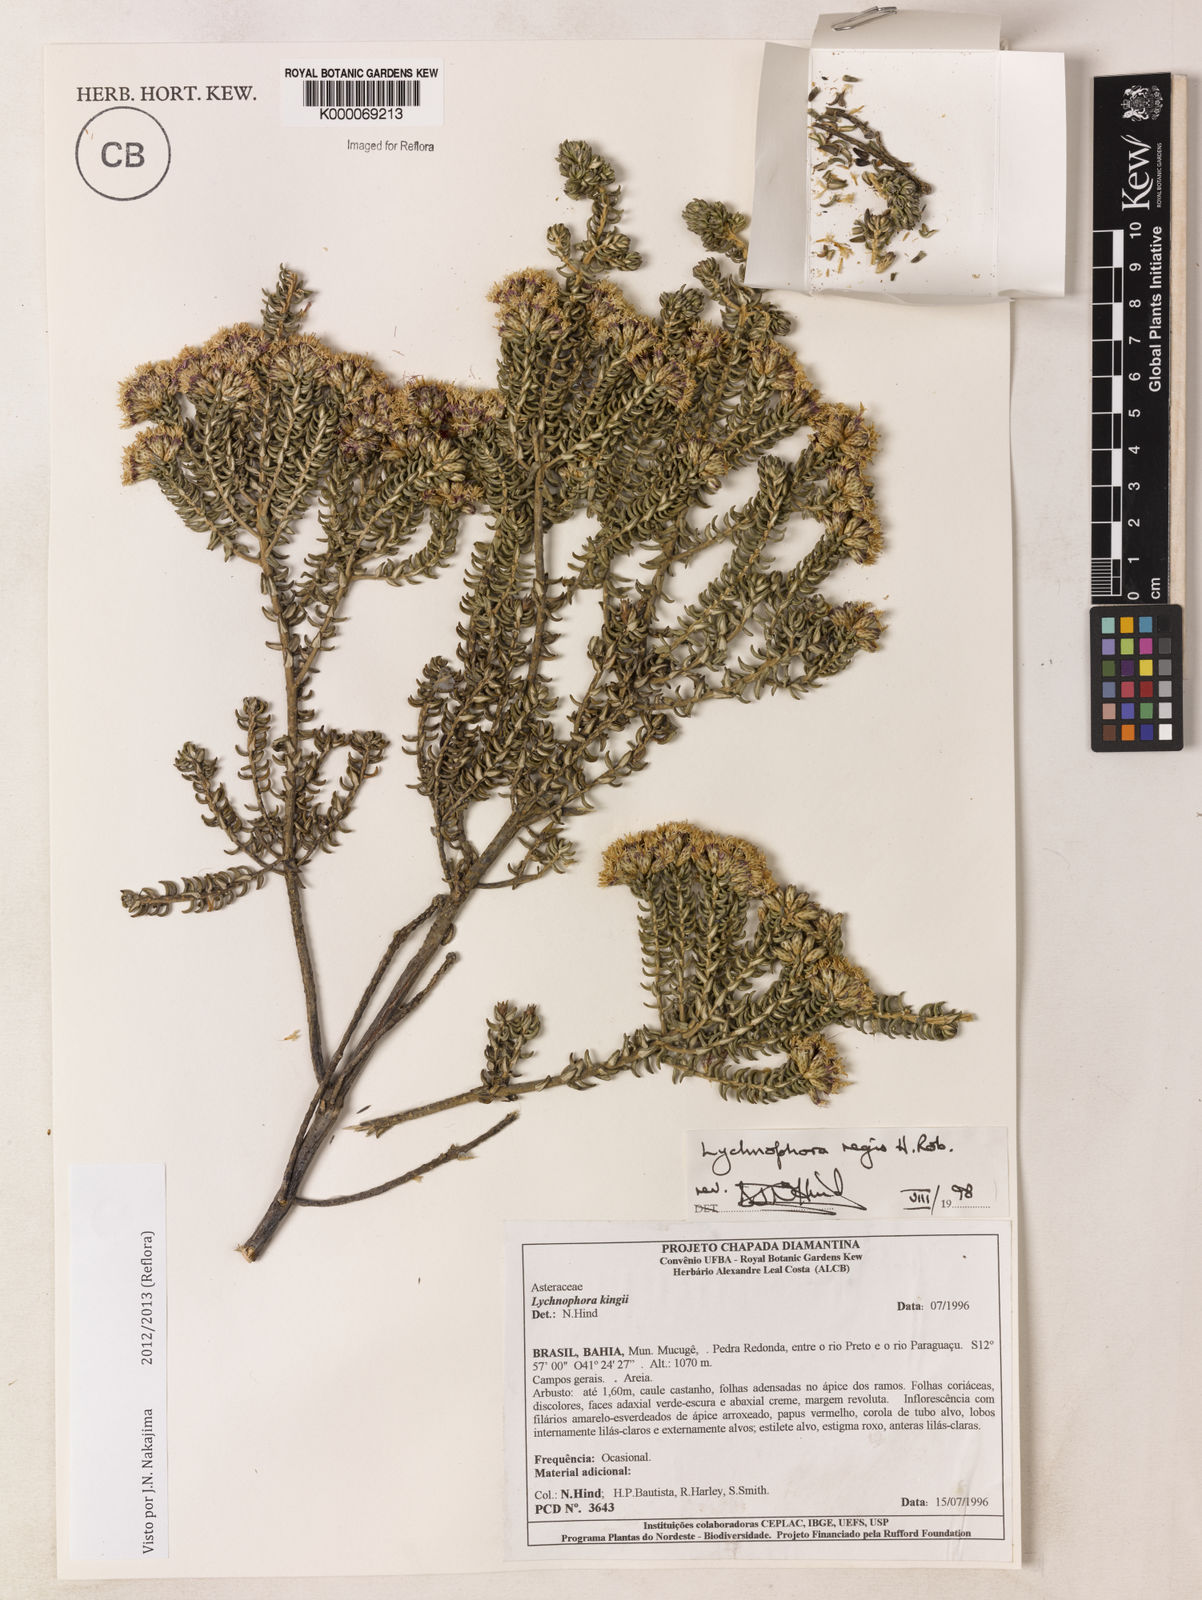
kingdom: Plantae
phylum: Tracheophyta
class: Magnoliopsida
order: Asterales
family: Asteraceae
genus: Lychnophorella
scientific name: Lychnophorella regis
